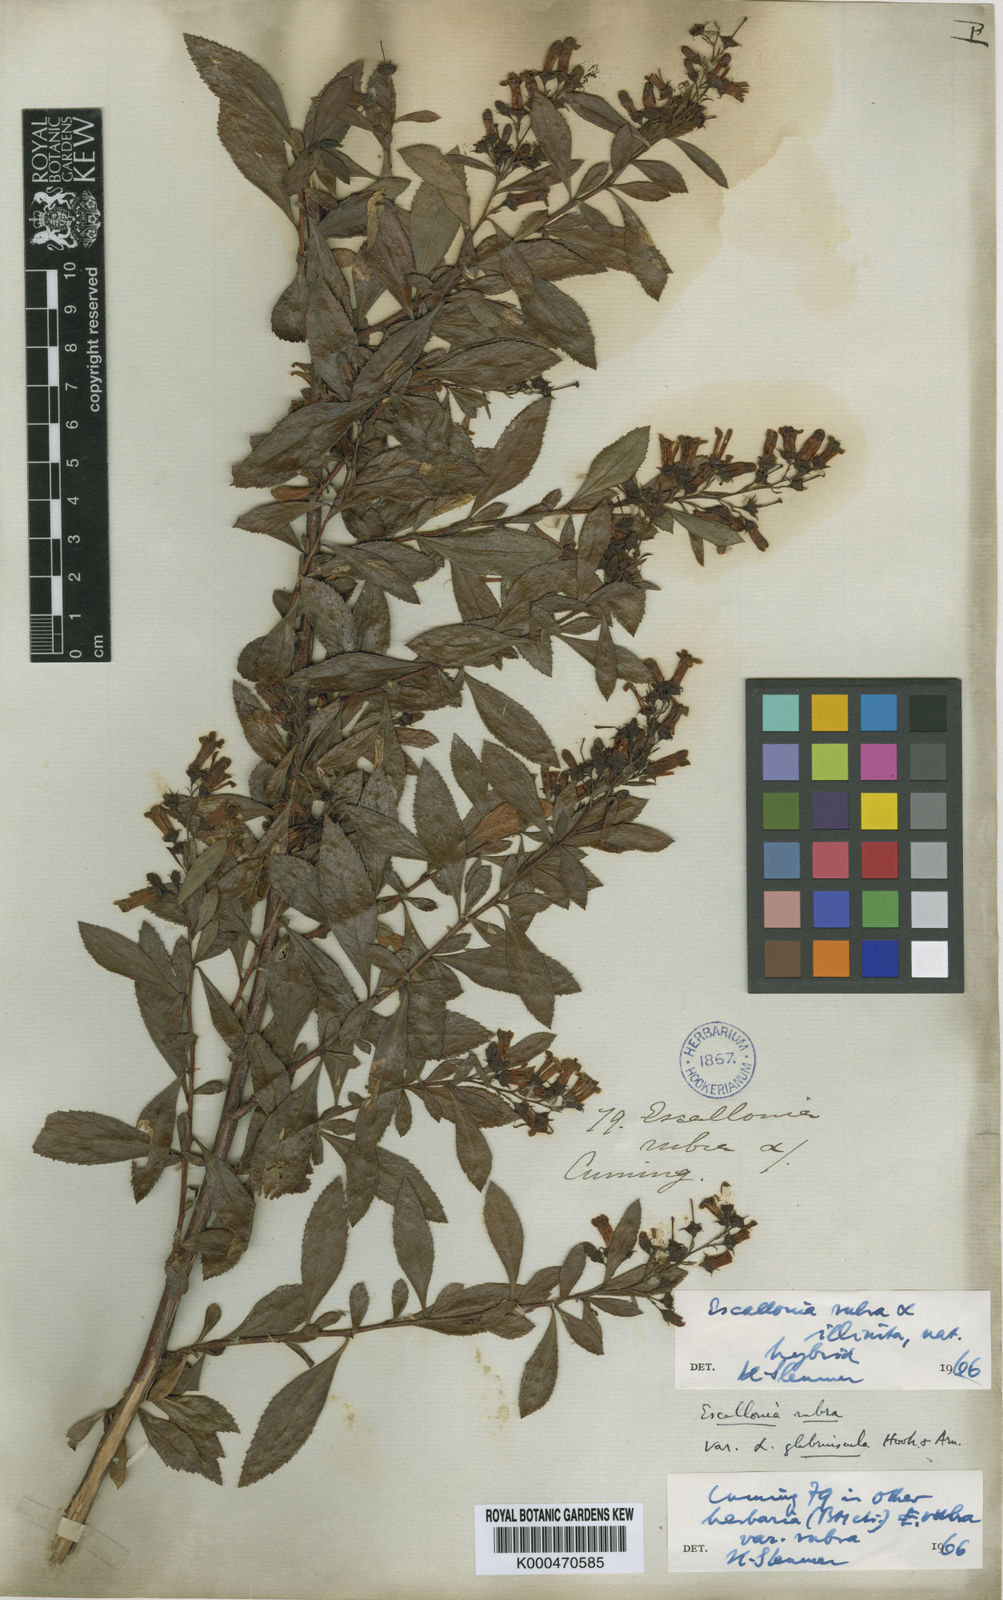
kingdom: Plantae
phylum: Tracheophyta
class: Magnoliopsida
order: Escalloniales
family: Escalloniaceae
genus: Escallonia
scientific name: Escallonia
